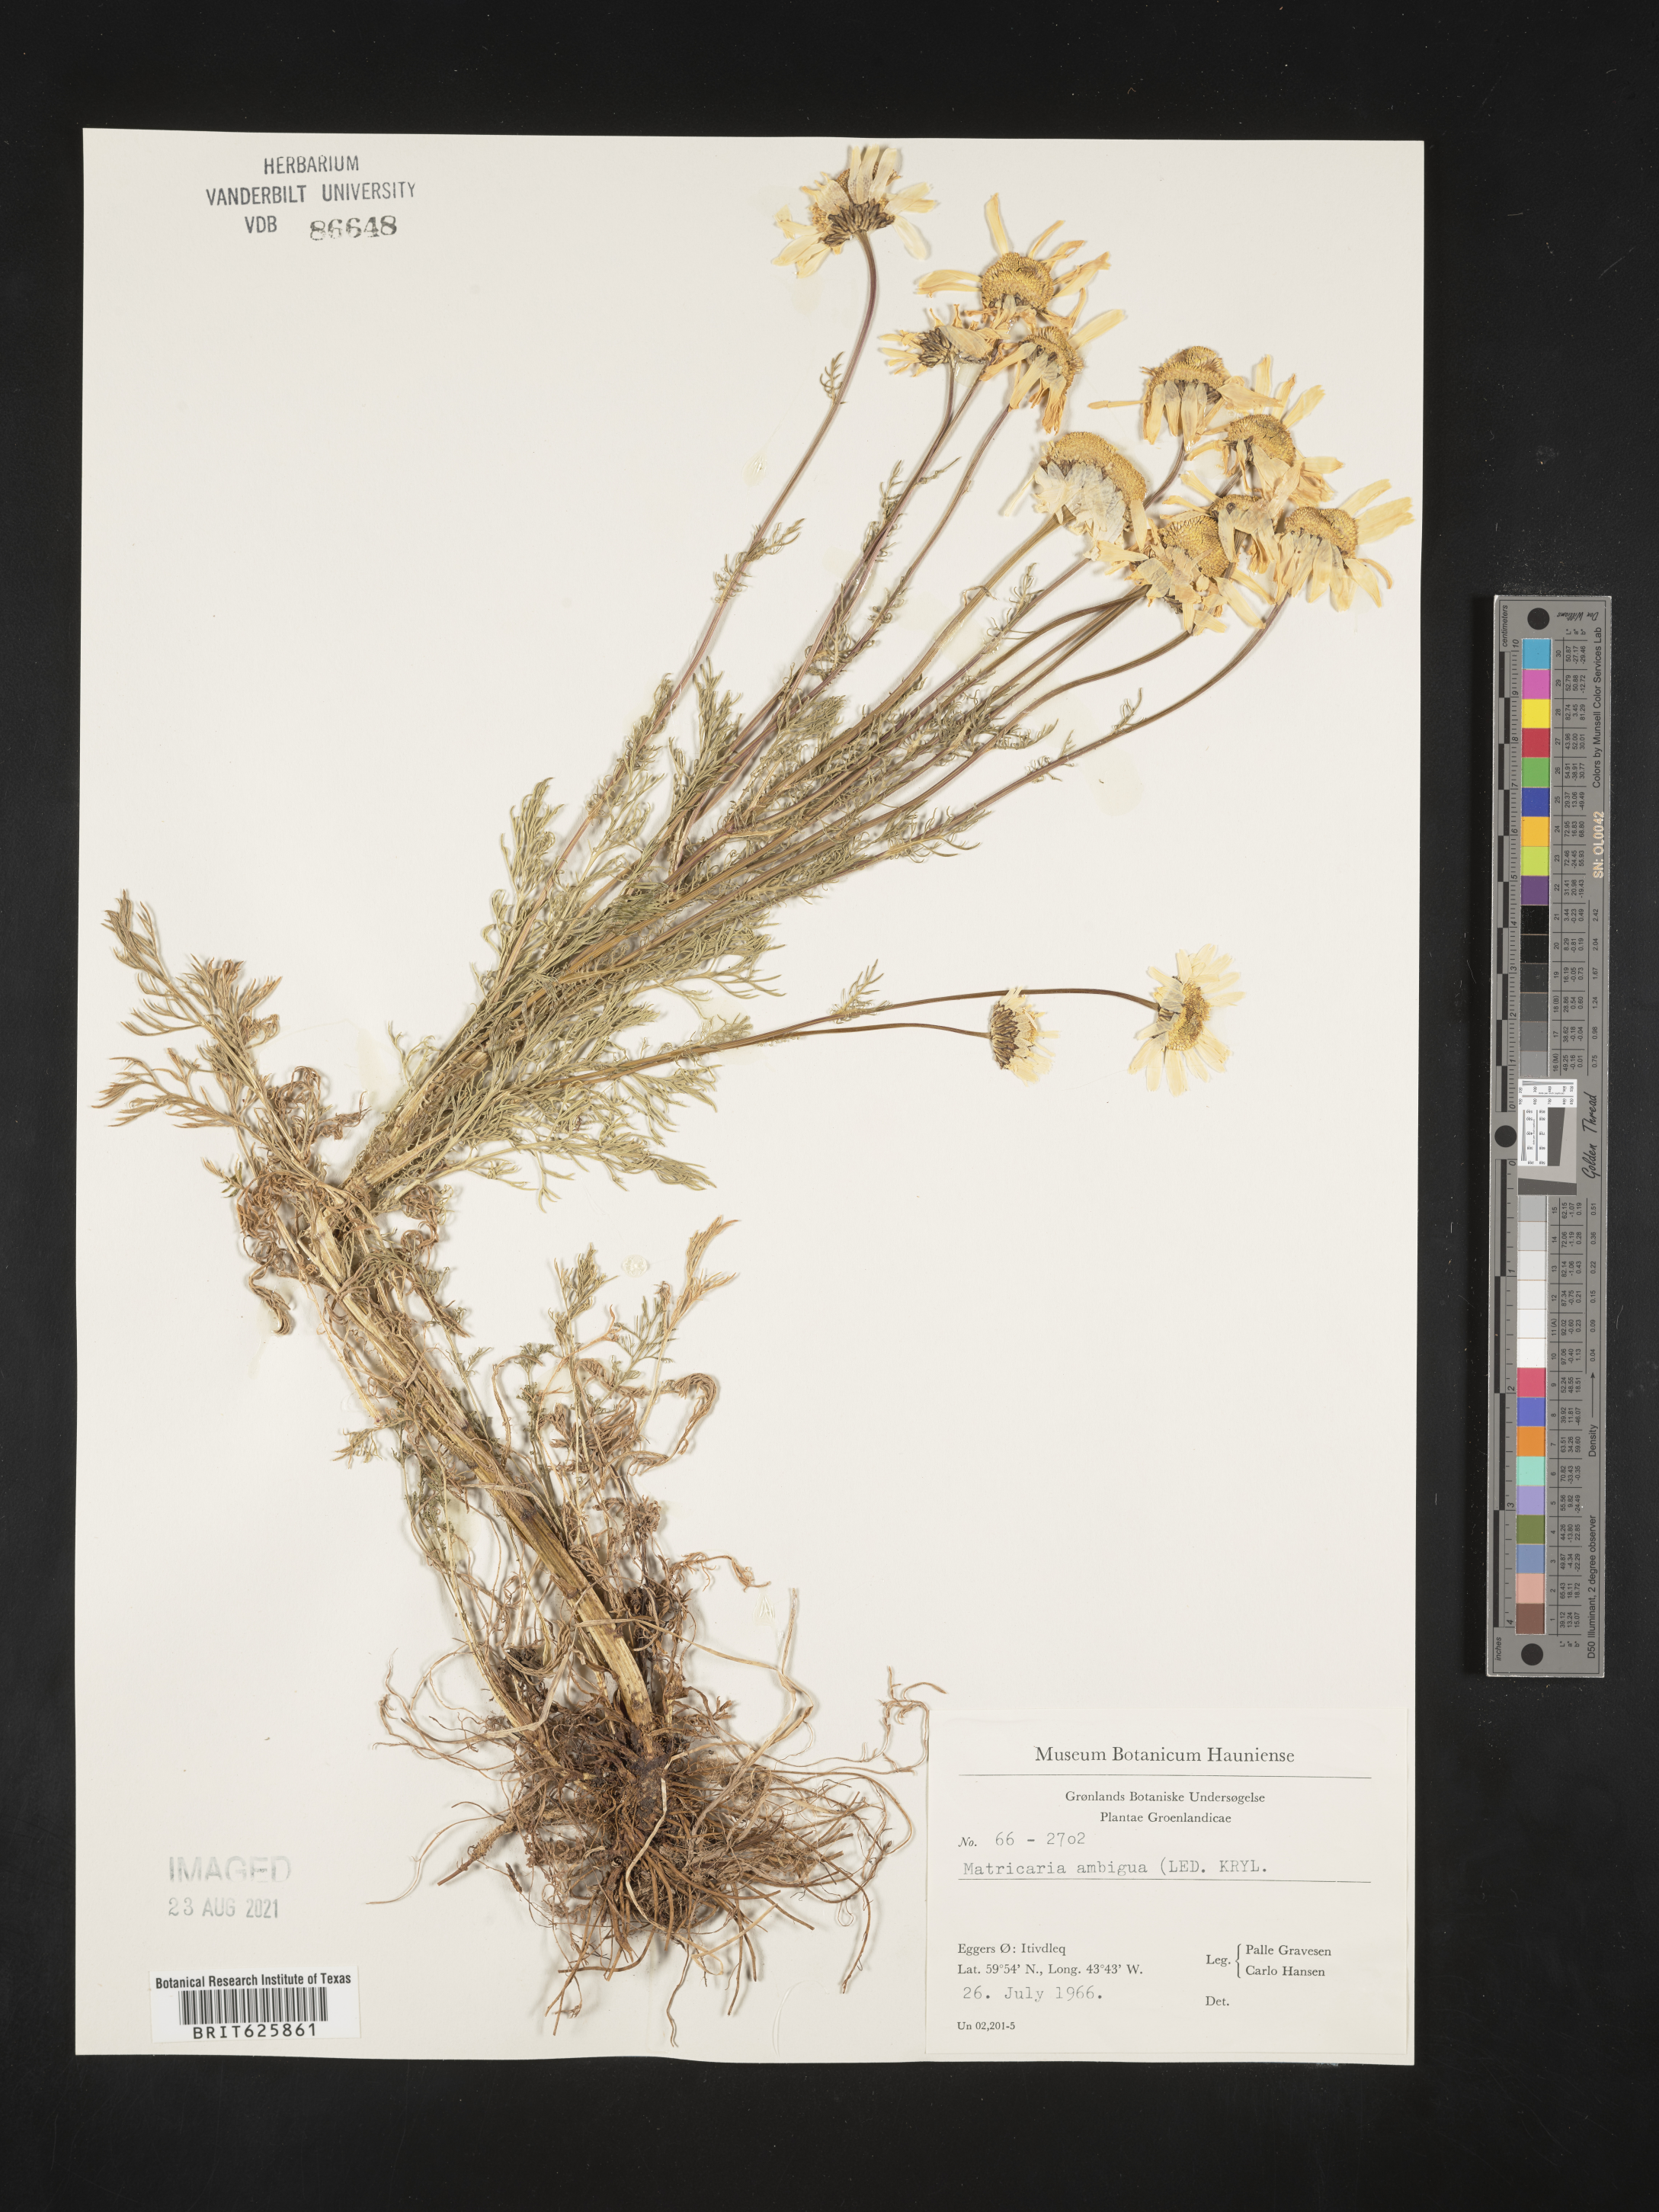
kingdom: Plantae
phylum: Tracheophyta
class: Magnoliopsida
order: Asterales
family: Asteraceae
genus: Tripleurospermum
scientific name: Tripleurospermum ambiguum
